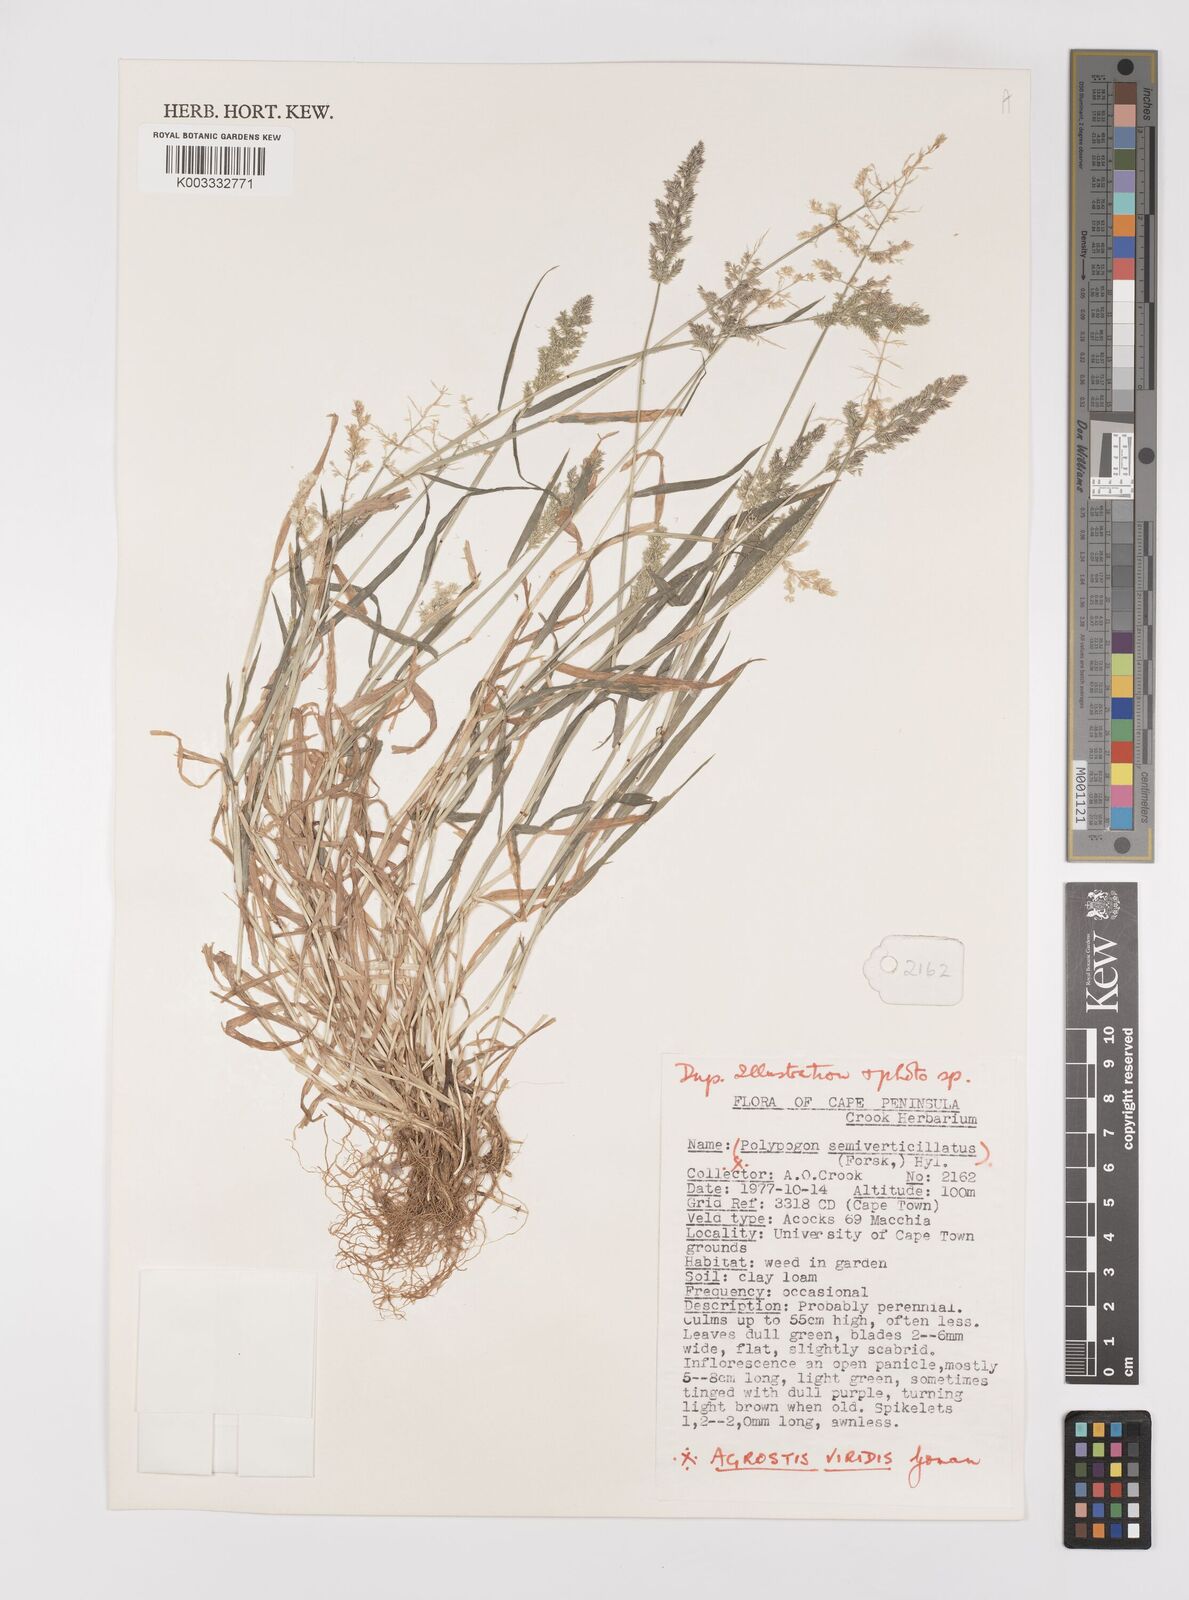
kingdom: Plantae
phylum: Tracheophyta
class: Liliopsida
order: Poales
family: Poaceae
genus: Polypogon
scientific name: Polypogon viridis
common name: Water bent
